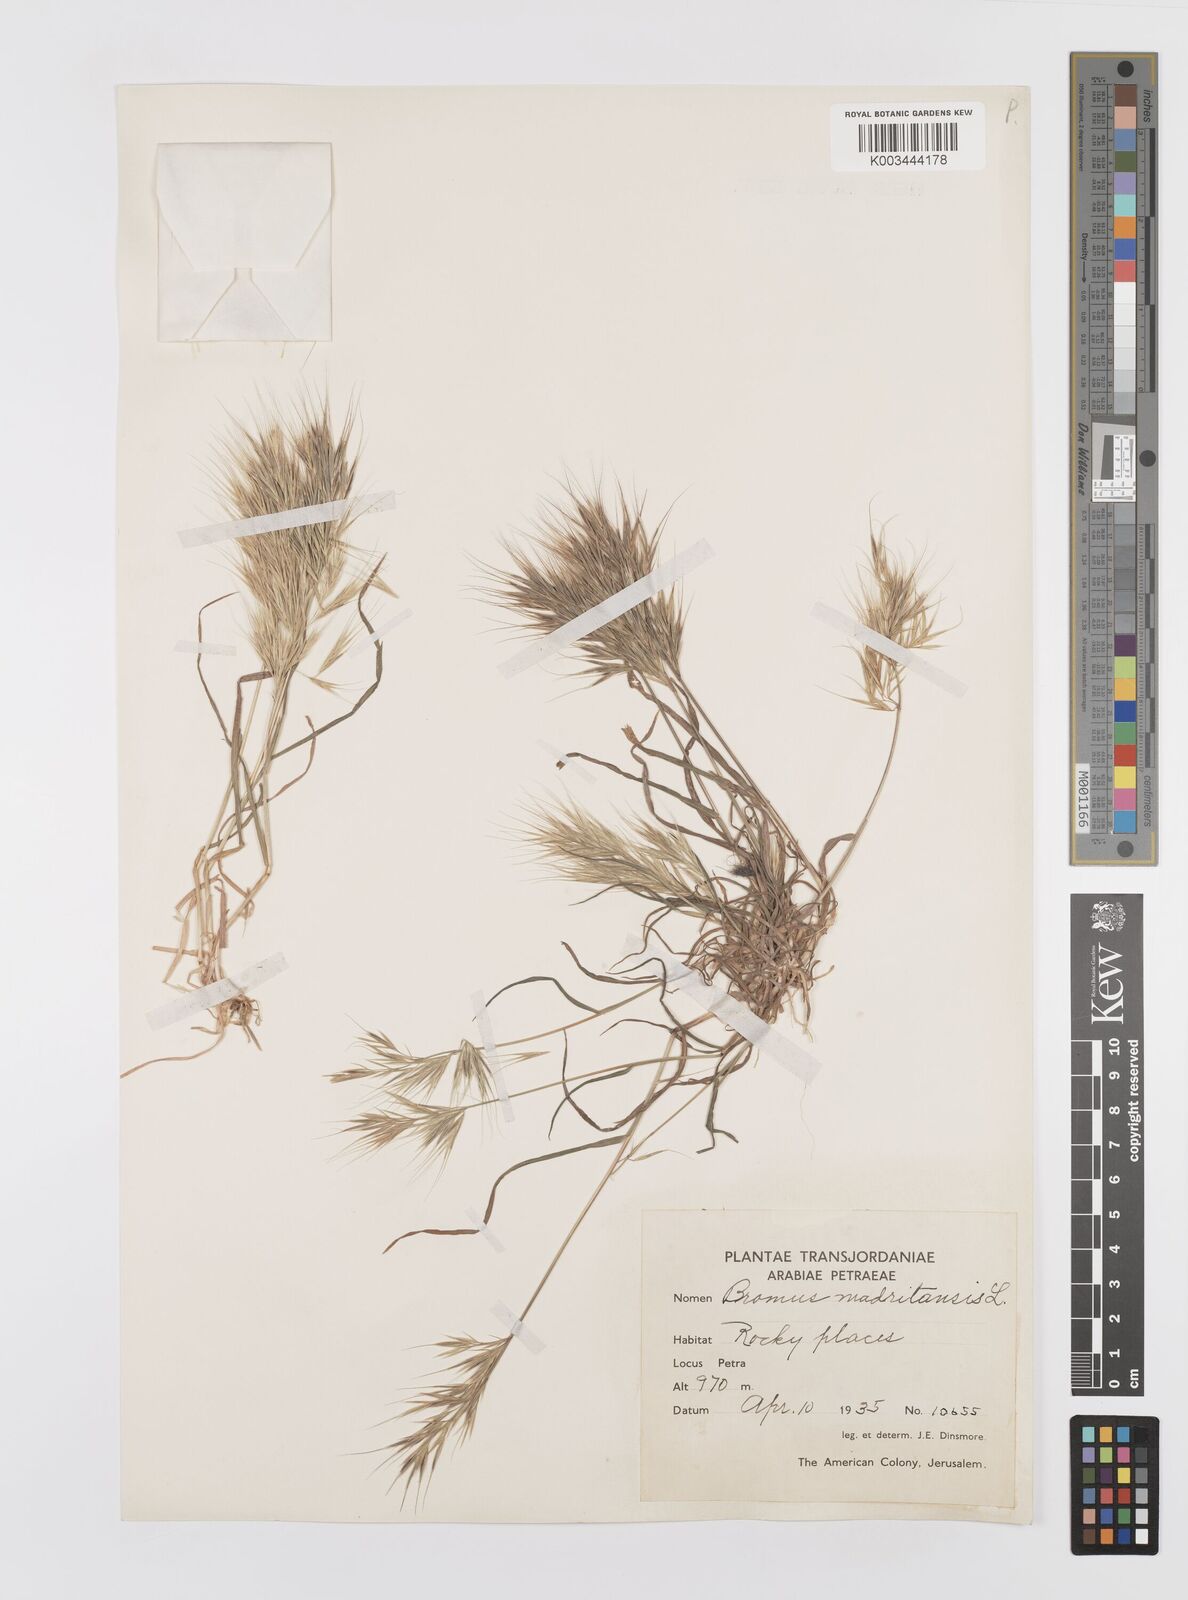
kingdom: Plantae
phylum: Tracheophyta
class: Liliopsida
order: Poales
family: Poaceae
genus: Bromus
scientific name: Bromus madritensis
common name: Compact brome
